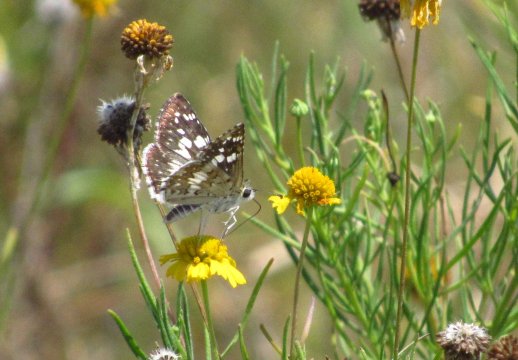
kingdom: Animalia
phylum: Arthropoda
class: Insecta
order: Lepidoptera
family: Hesperiidae
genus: Pyrgus
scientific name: Pyrgus
